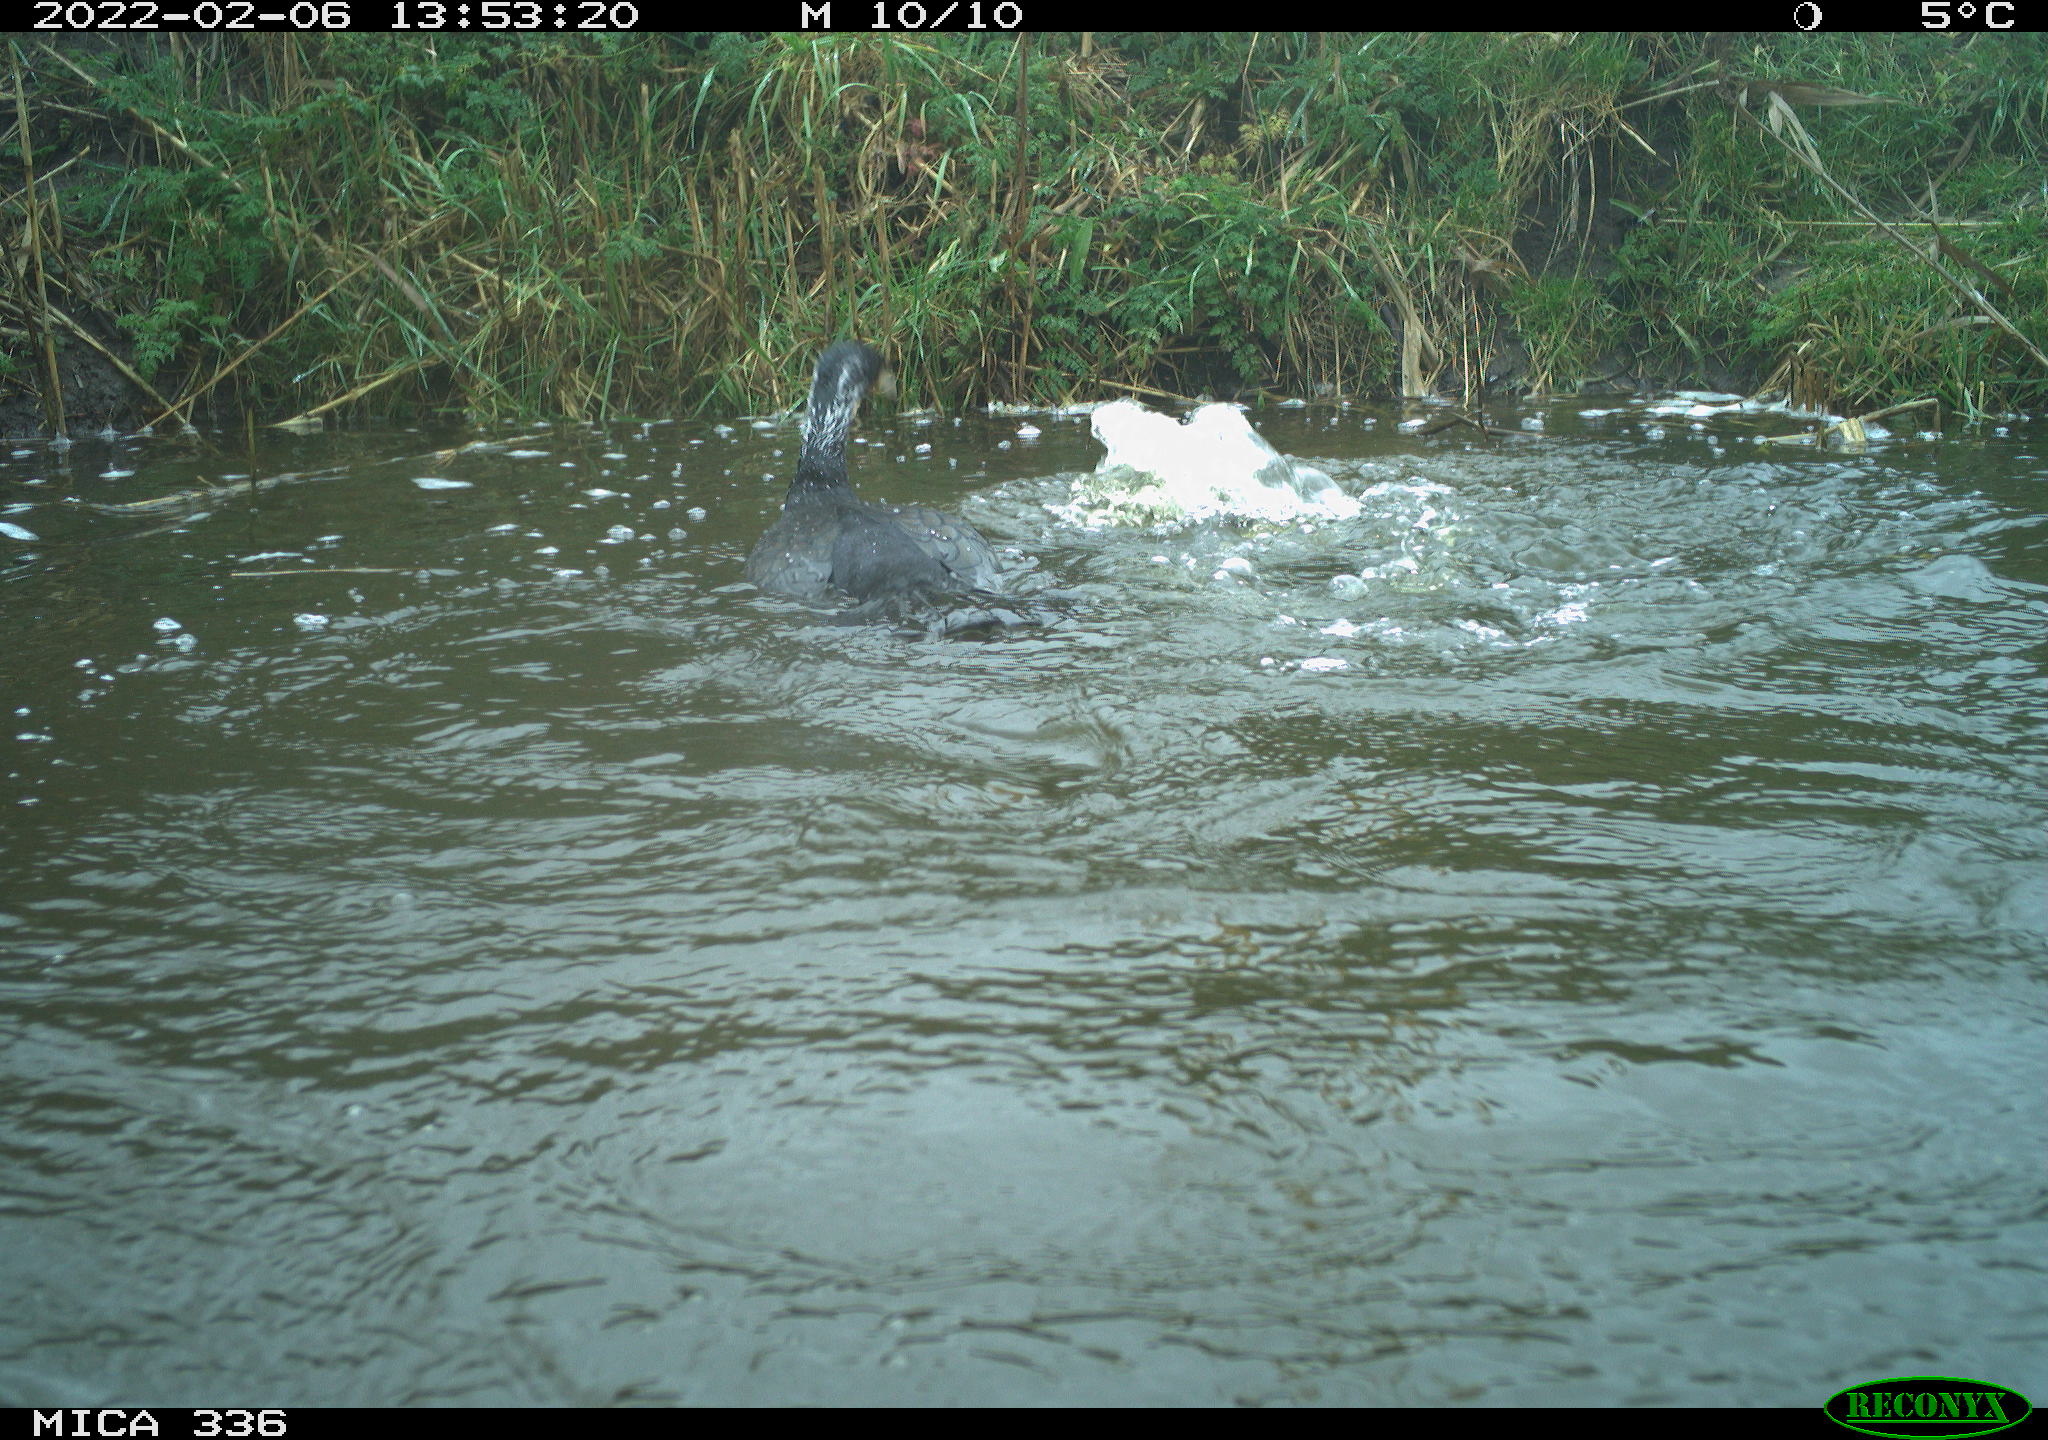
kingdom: Animalia
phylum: Chordata
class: Aves
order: Suliformes
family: Phalacrocoracidae
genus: Phalacrocorax
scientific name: Phalacrocorax carbo
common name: Great cormorant
